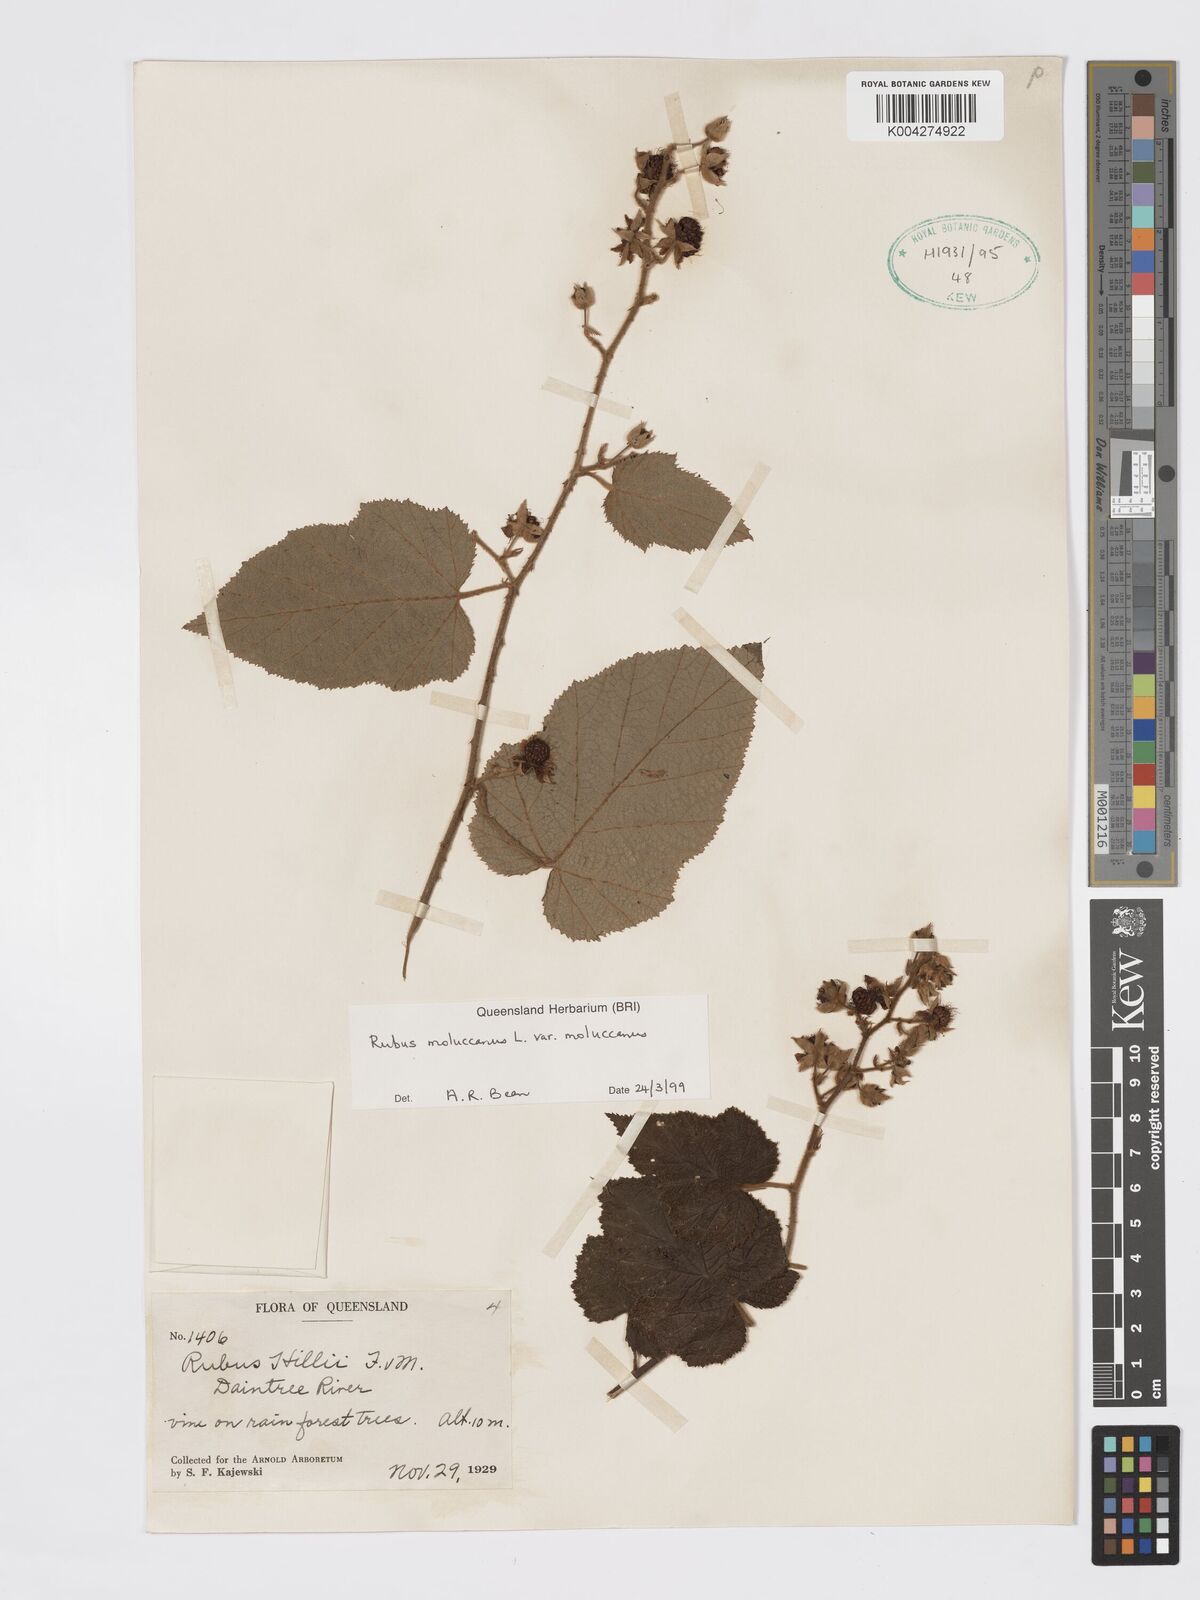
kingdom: Plantae
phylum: Tracheophyta
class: Magnoliopsida
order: Rosales
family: Rosaceae
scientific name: Rosaceae
